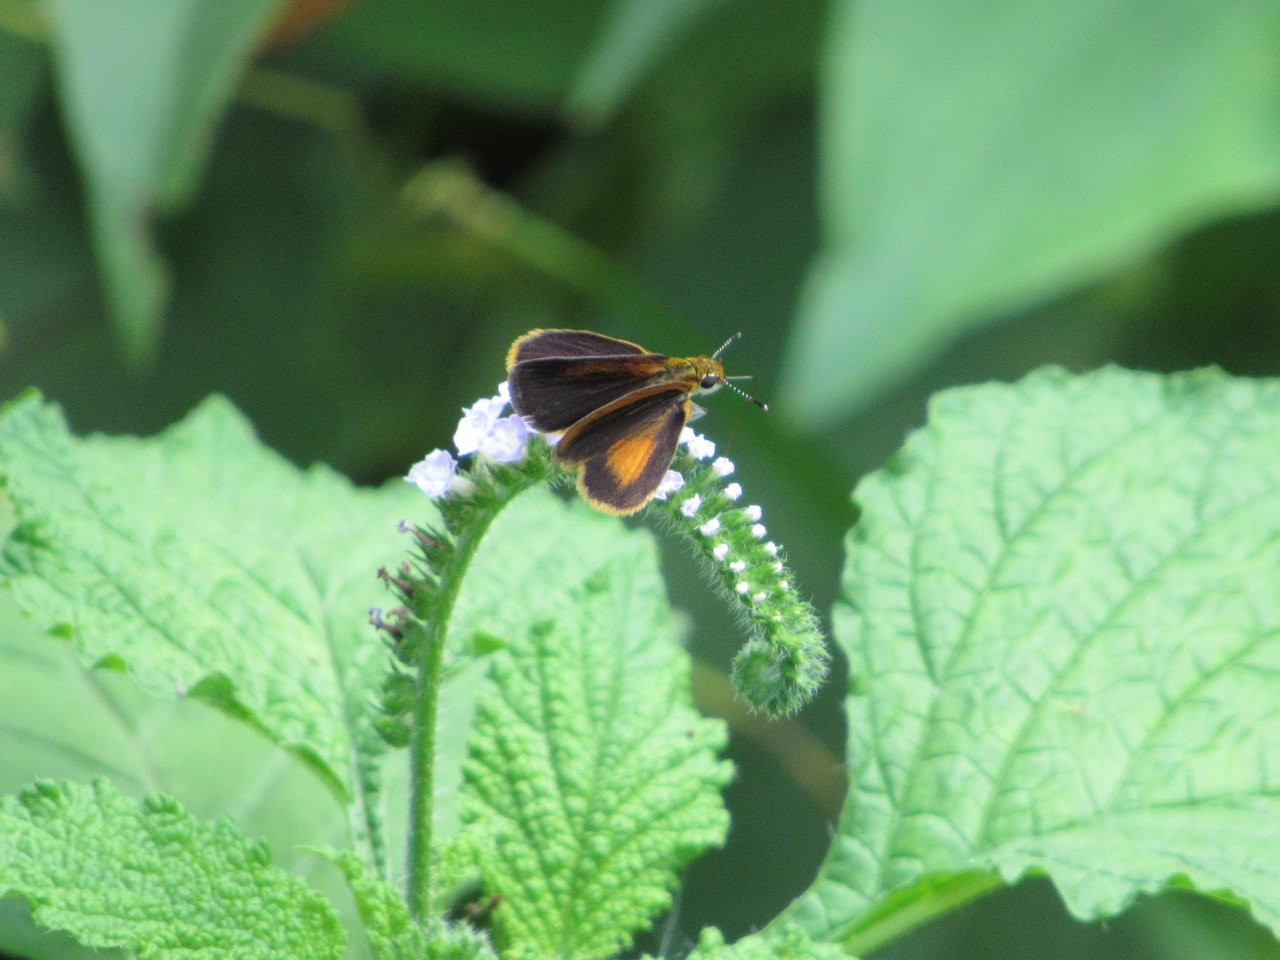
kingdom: Animalia
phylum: Arthropoda
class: Insecta
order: Lepidoptera
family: Hesperiidae
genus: Ancyloxypha
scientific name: Ancyloxypha numitor
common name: Least Skipper
